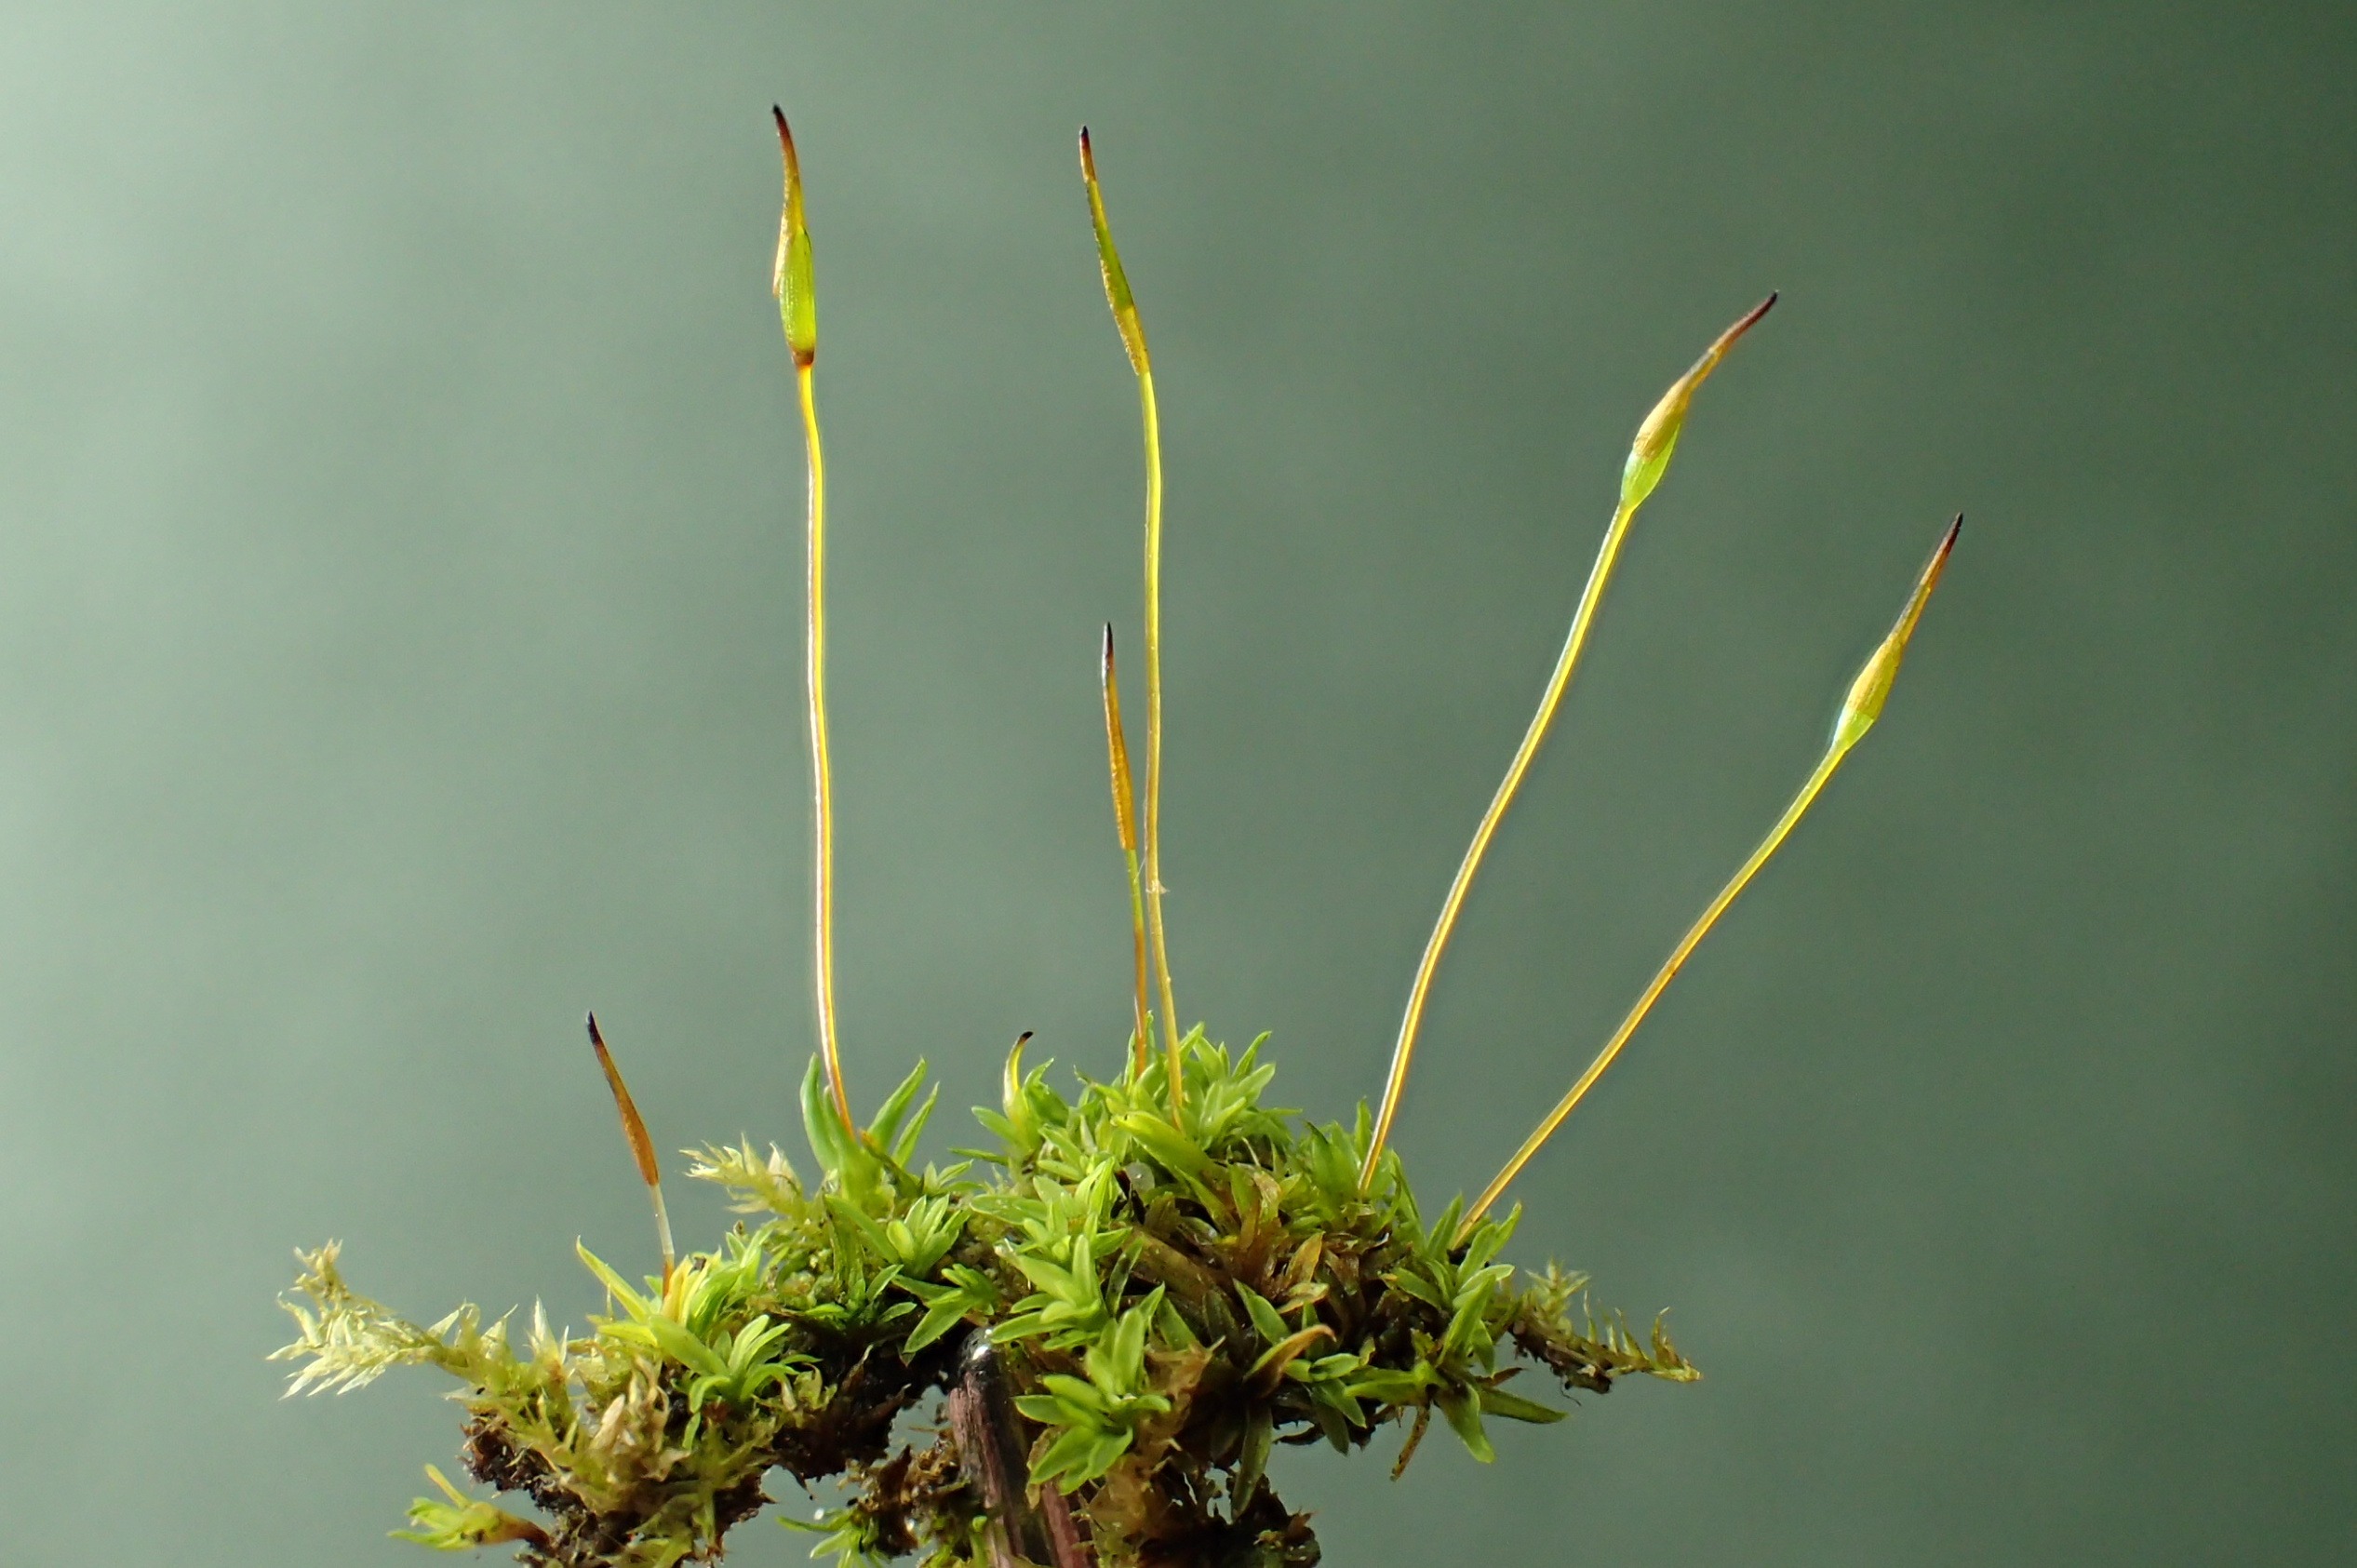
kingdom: Plantae
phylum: Bryophyta
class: Bryopsida
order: Pottiales
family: Pottiaceae
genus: Tortula
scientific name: Tortula muralis
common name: Mur-snotand
